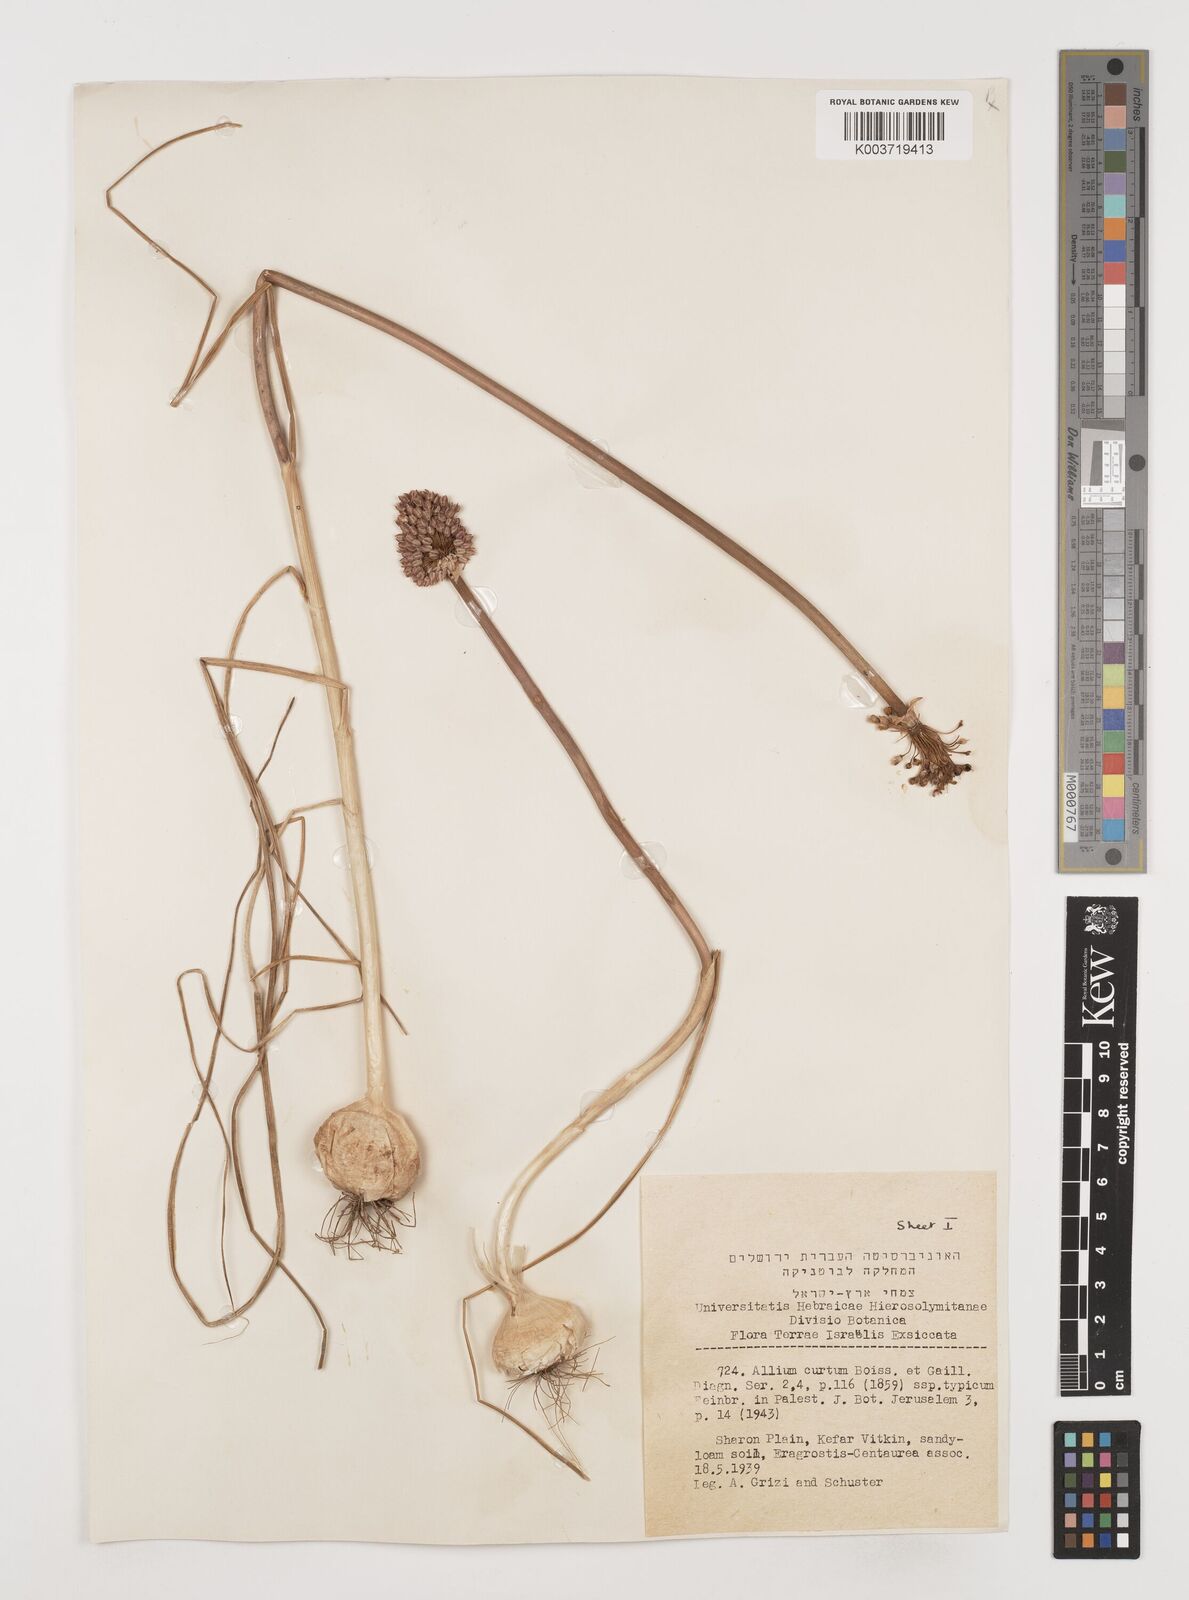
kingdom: Plantae
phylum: Tracheophyta
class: Liliopsida
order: Asparagales
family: Amaryllidaceae
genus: Allium
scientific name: Allium curtum
